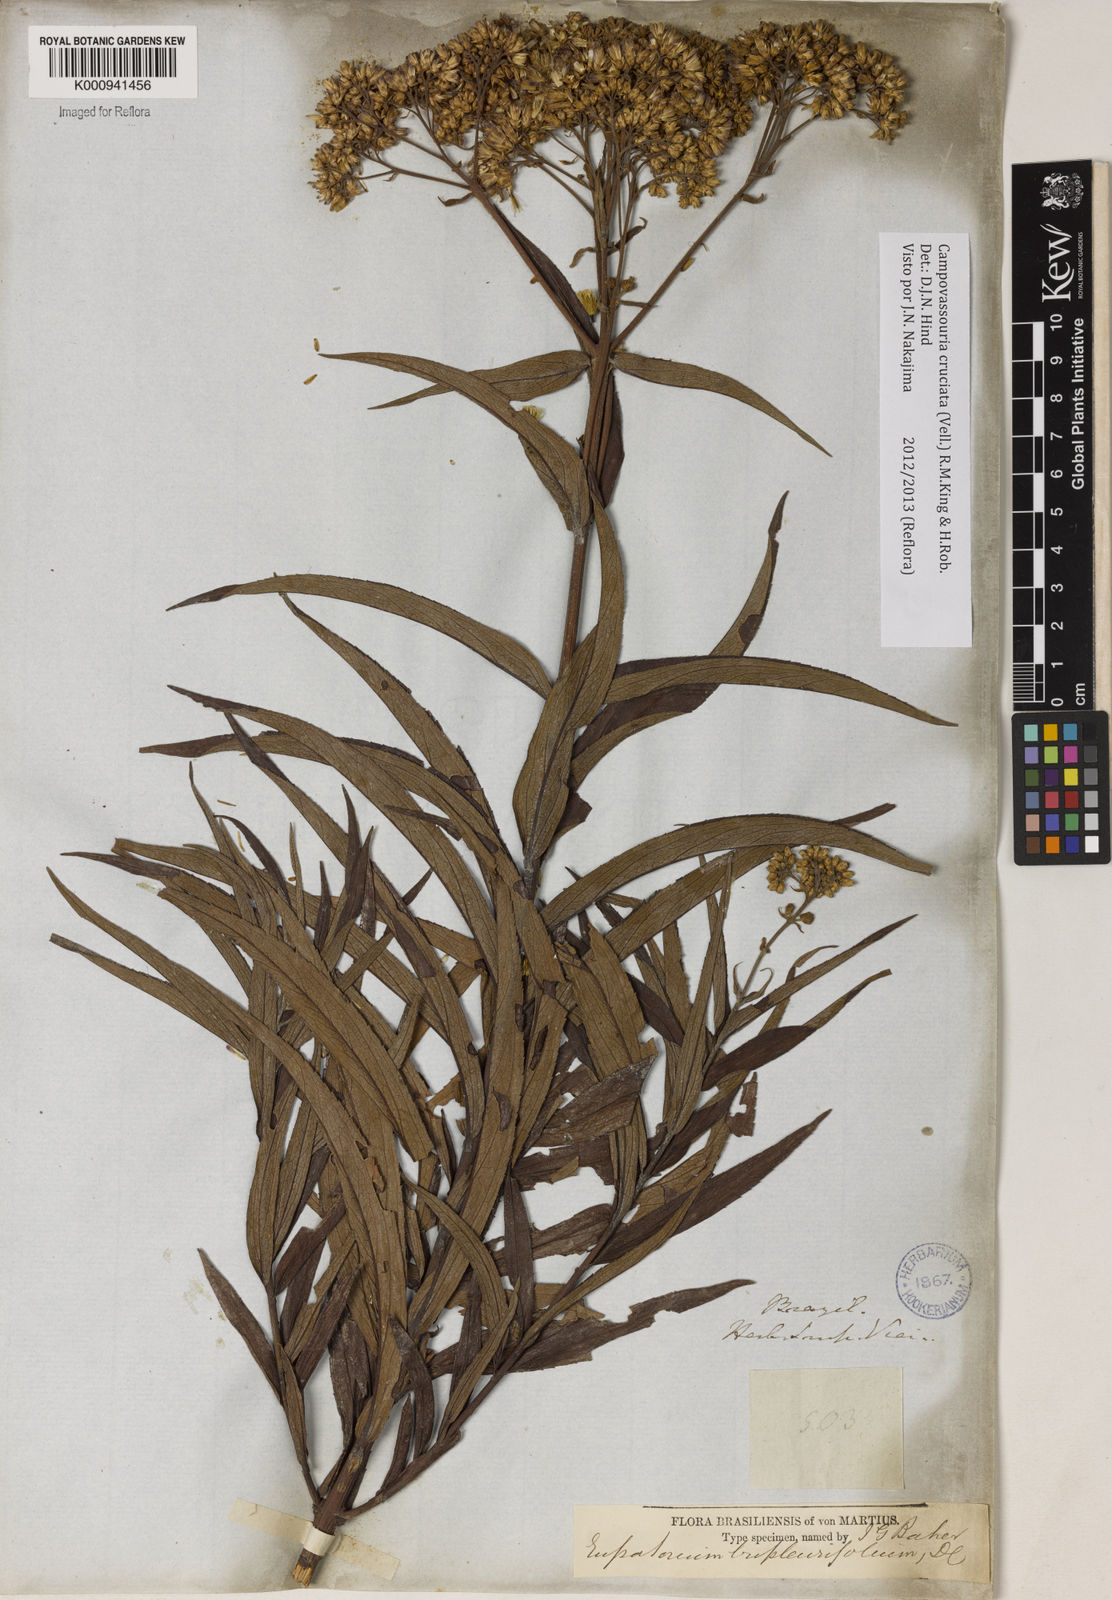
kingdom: Plantae
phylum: Tracheophyta
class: Magnoliopsida
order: Asterales
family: Asteraceae
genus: Campovassouria
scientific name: Campovassouria cruciata
